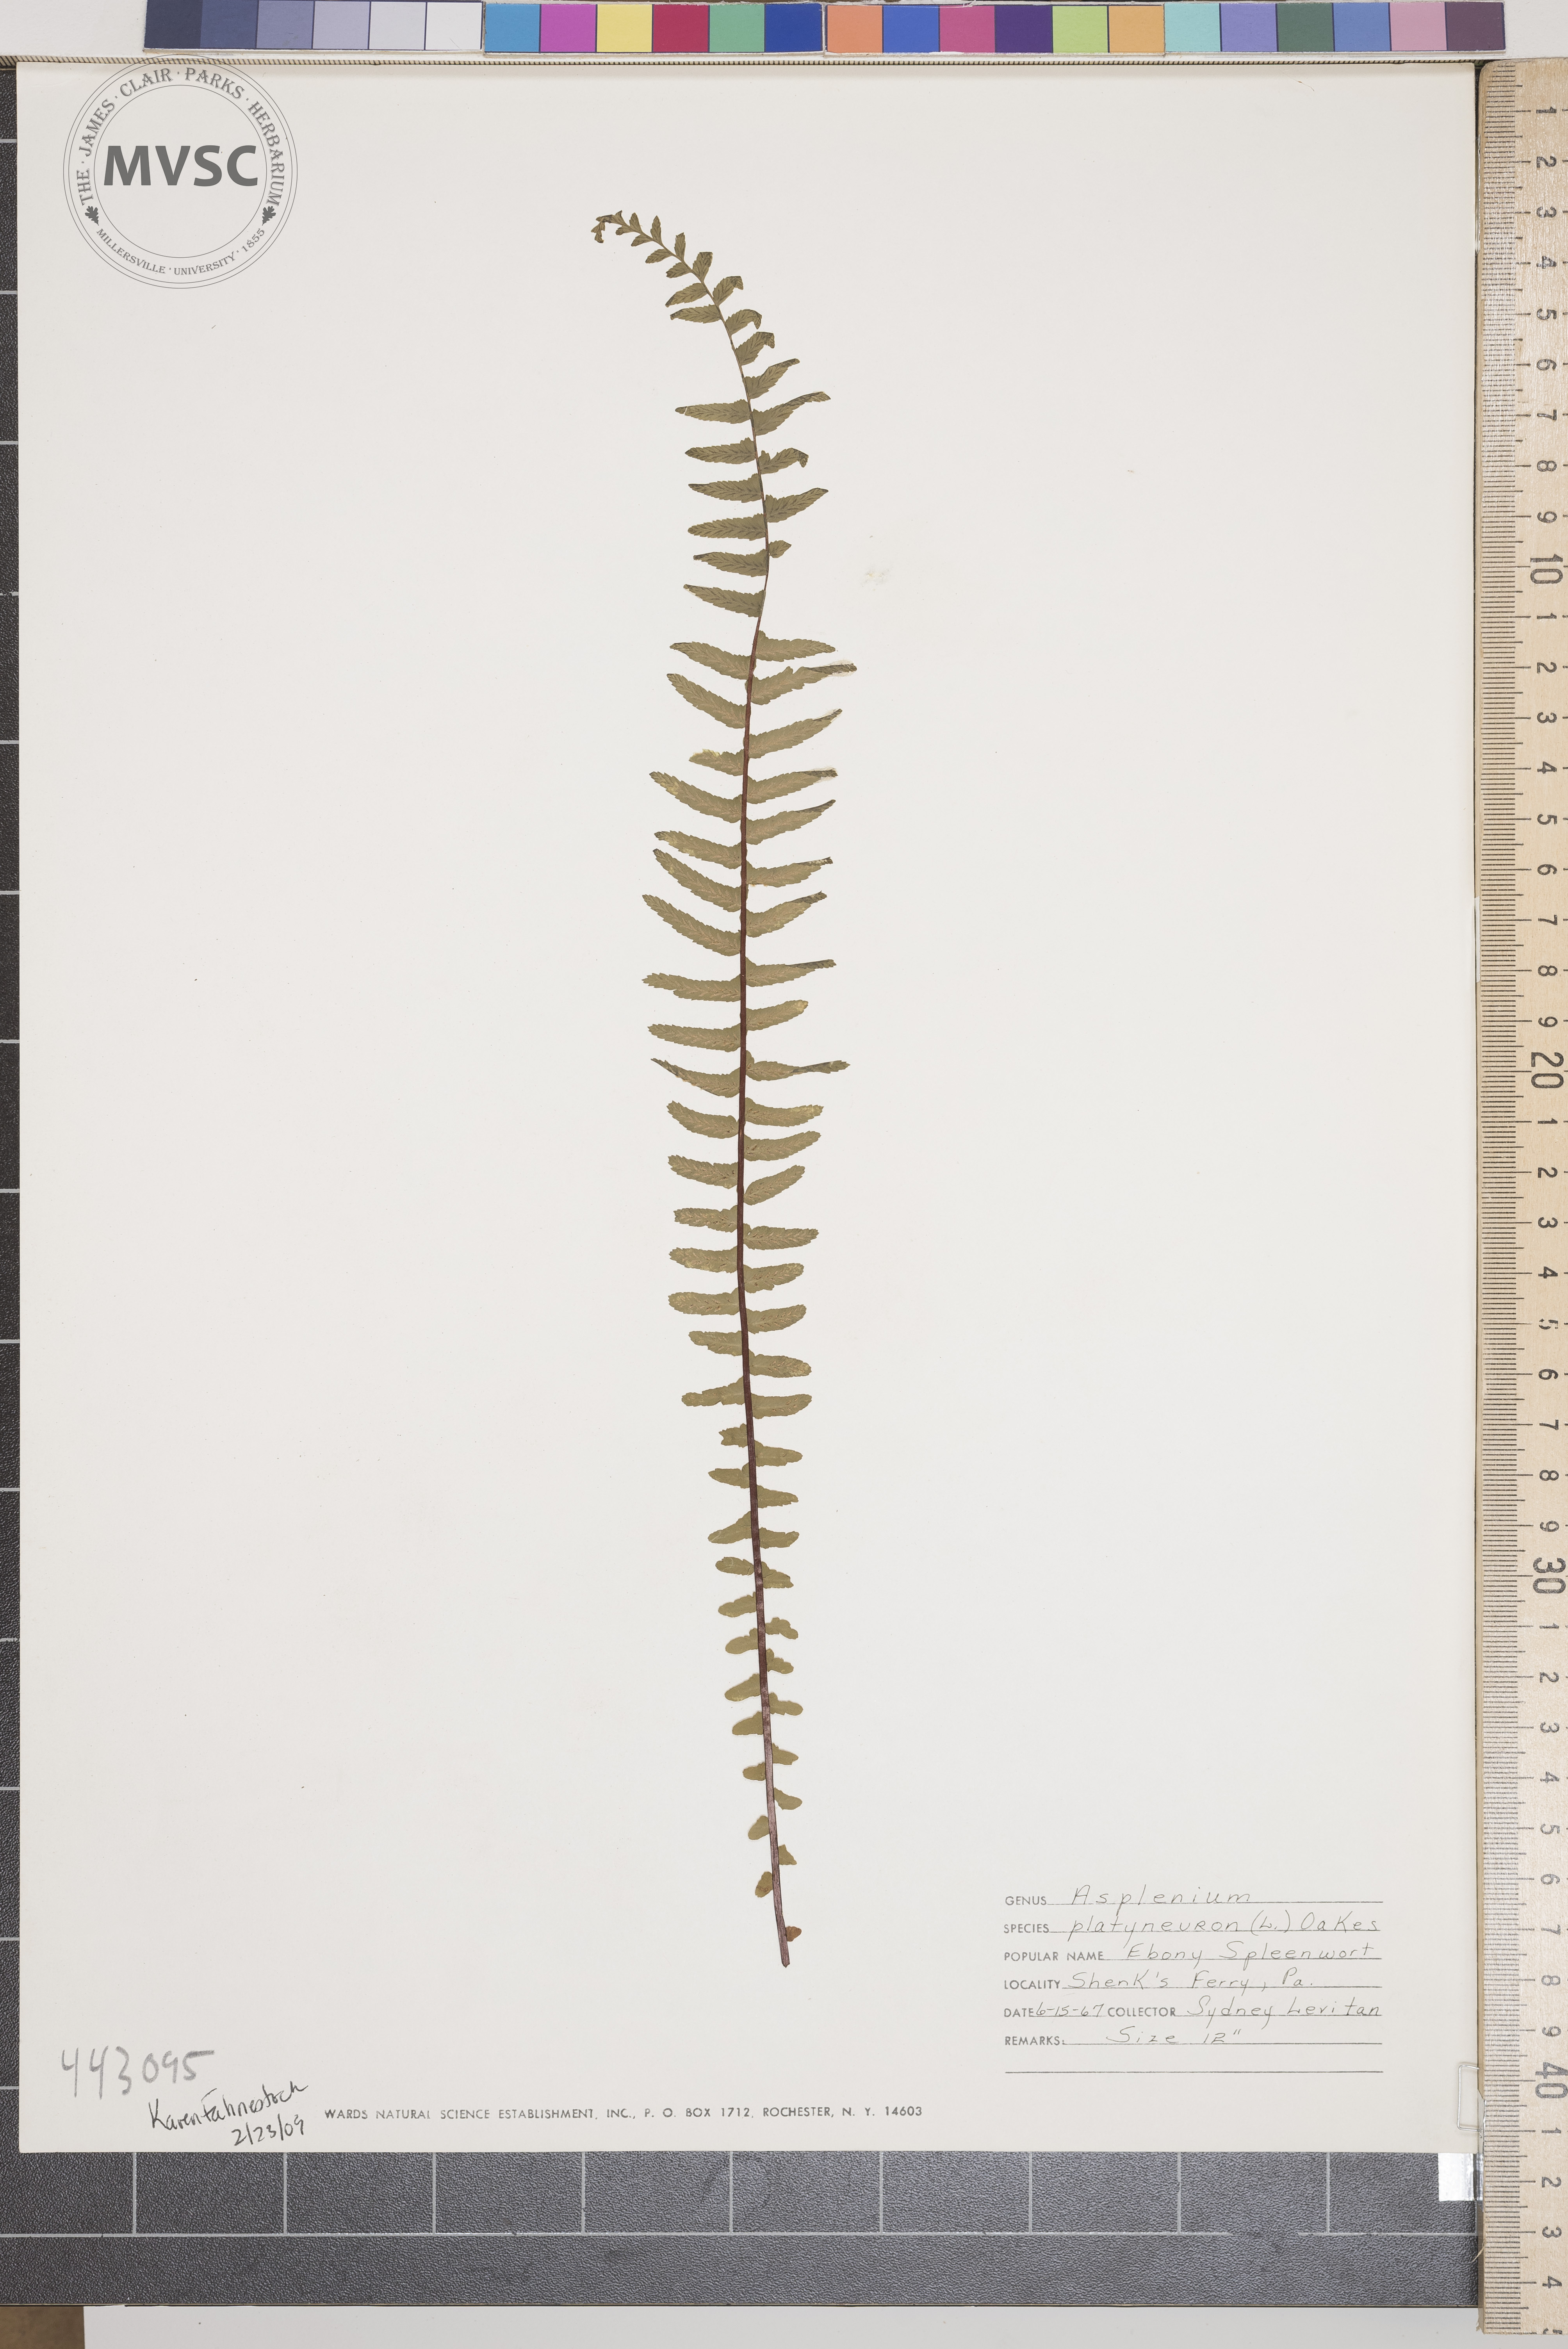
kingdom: Plantae
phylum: Tracheophyta
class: Polypodiopsida
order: Polypodiales
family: Aspleniaceae
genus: Asplenium
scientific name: Asplenium platyneuron
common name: Ebony spleenwort
